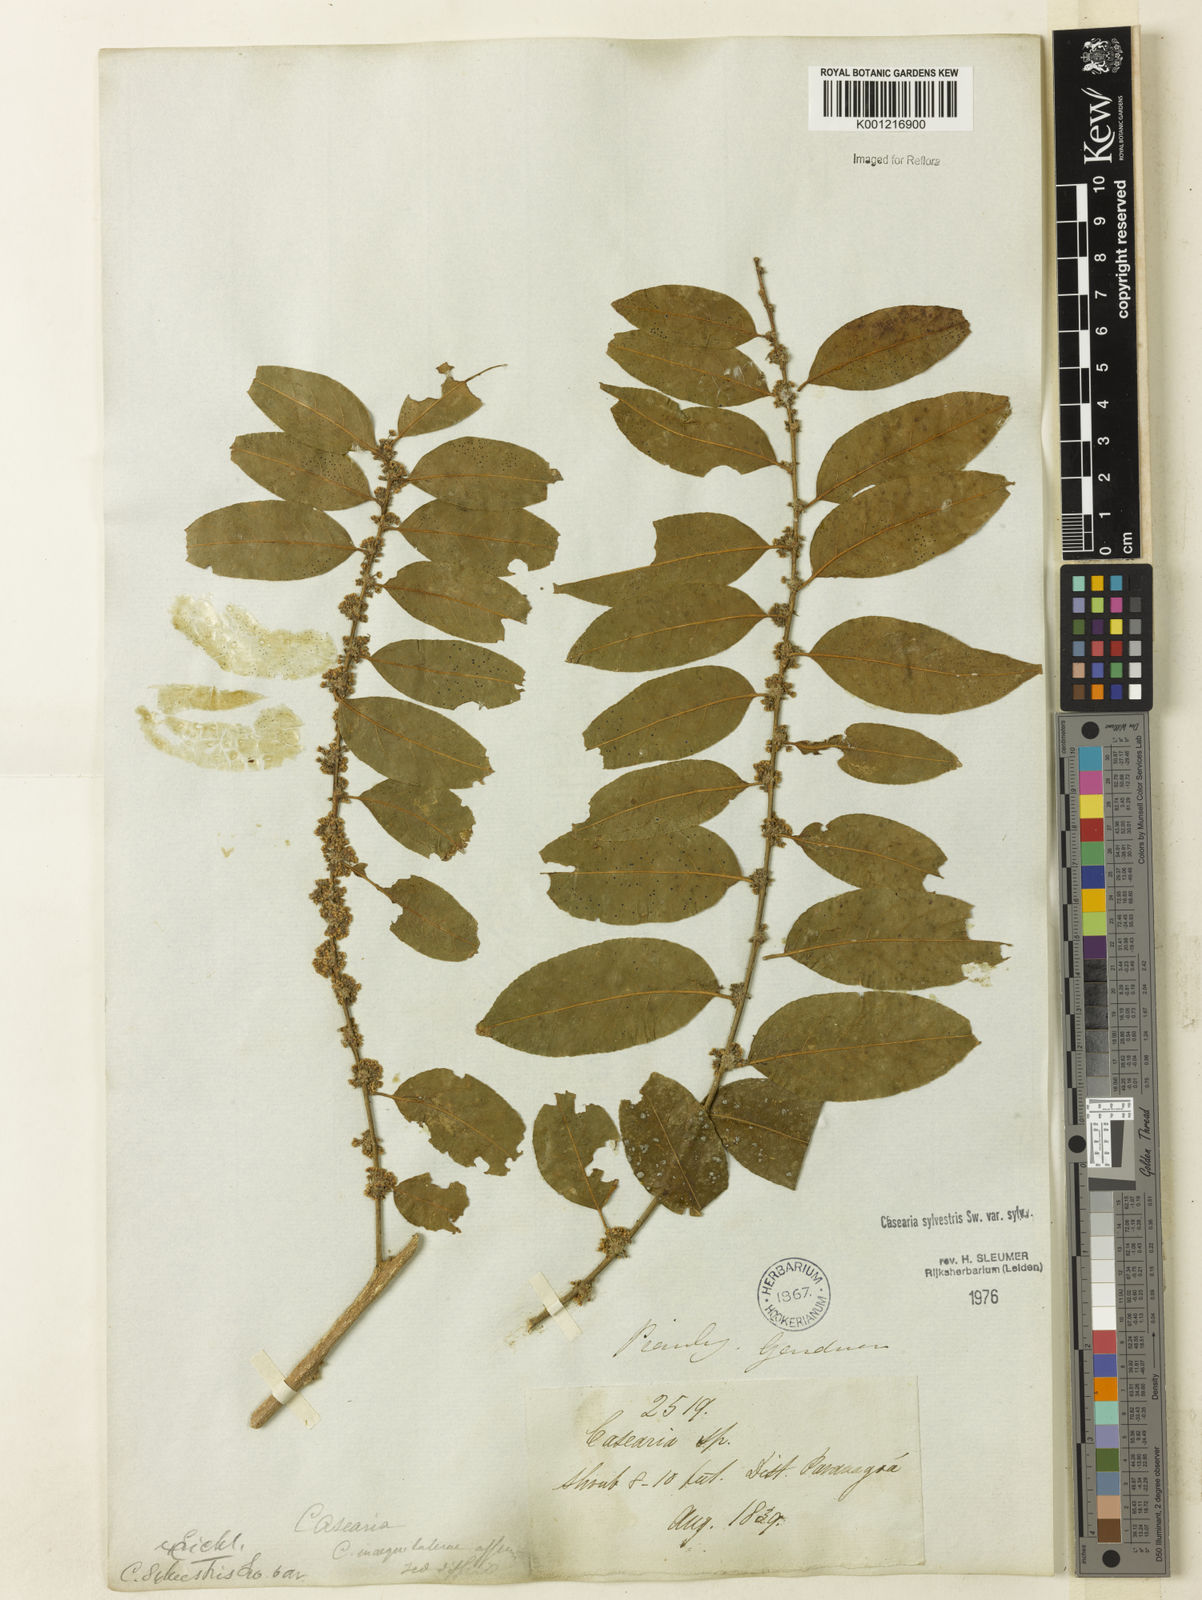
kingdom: Plantae
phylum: Tracheophyta
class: Magnoliopsida
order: Malpighiales
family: Salicaceae
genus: Casearia
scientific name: Casearia sylvestris
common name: Wild sage
